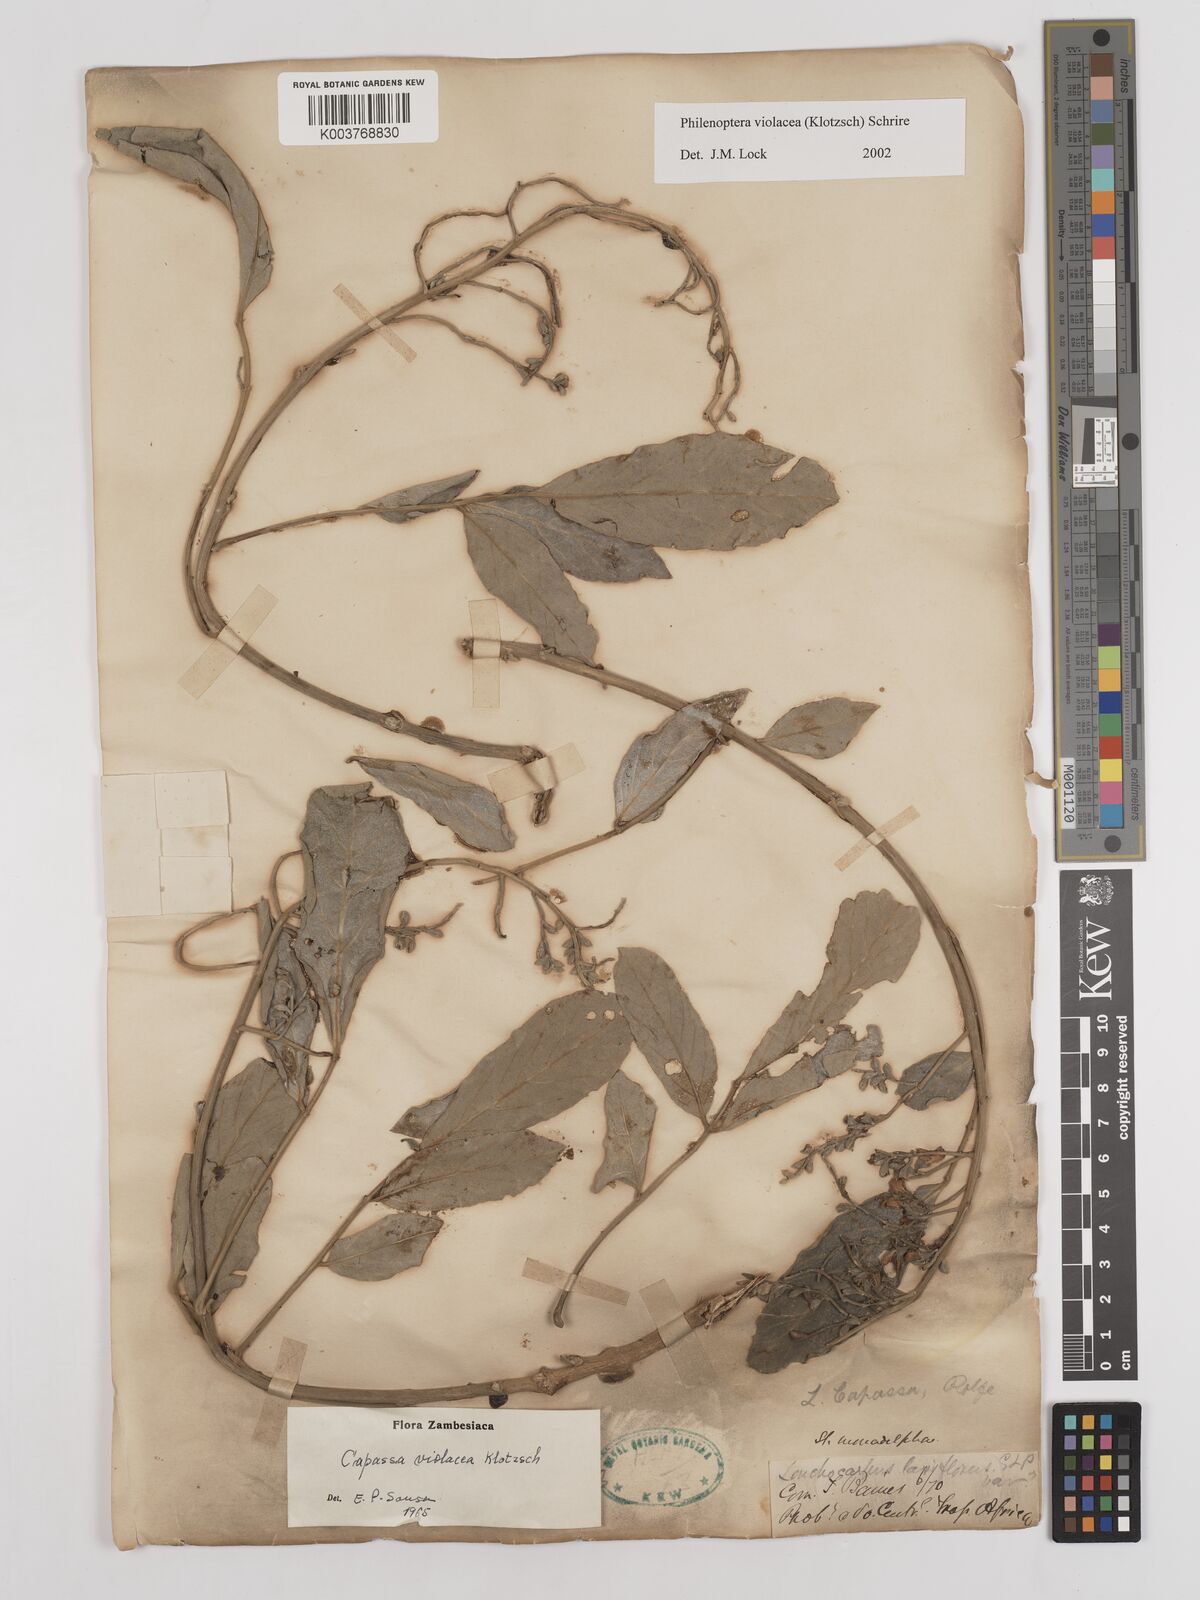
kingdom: Plantae
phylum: Tracheophyta
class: Magnoliopsida
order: Fabales
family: Fabaceae
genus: Philenoptera
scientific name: Philenoptera violacea
